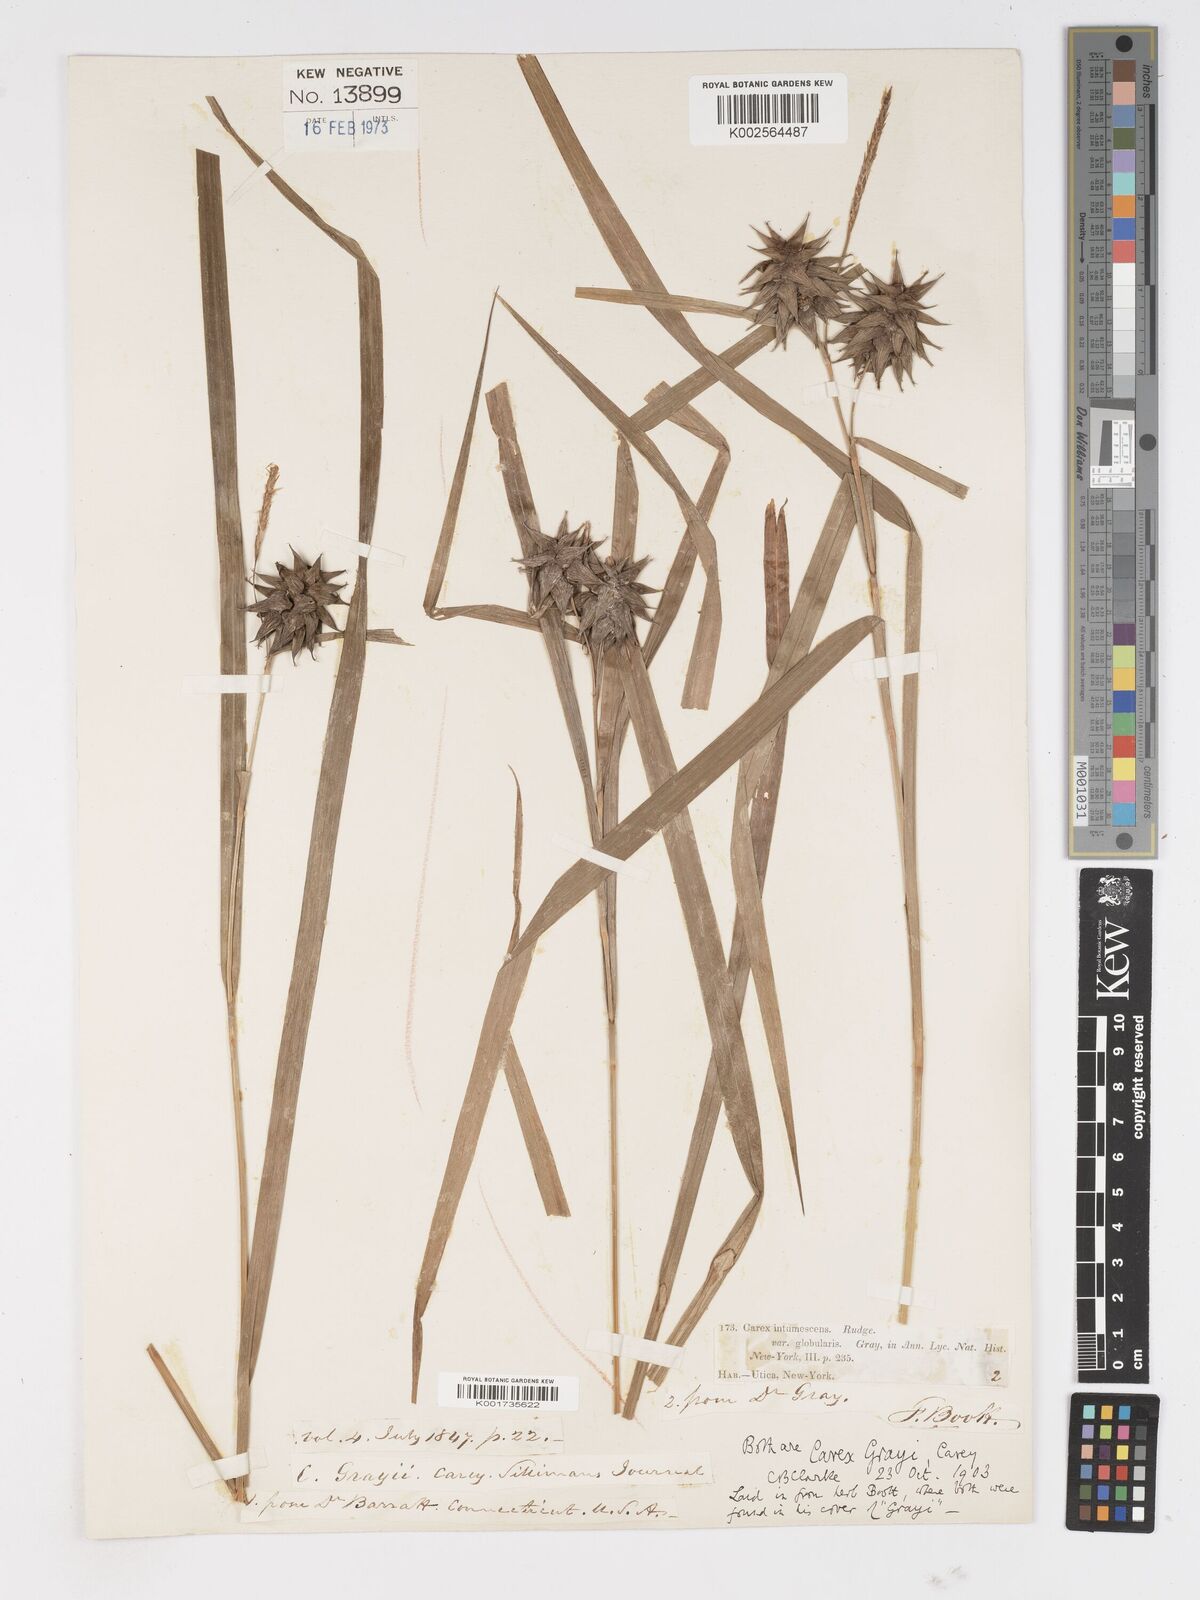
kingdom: Plantae
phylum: Tracheophyta
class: Liliopsida
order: Poales
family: Cyperaceae
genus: Carex
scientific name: Carex intumescens
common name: Greater bladder sedge
